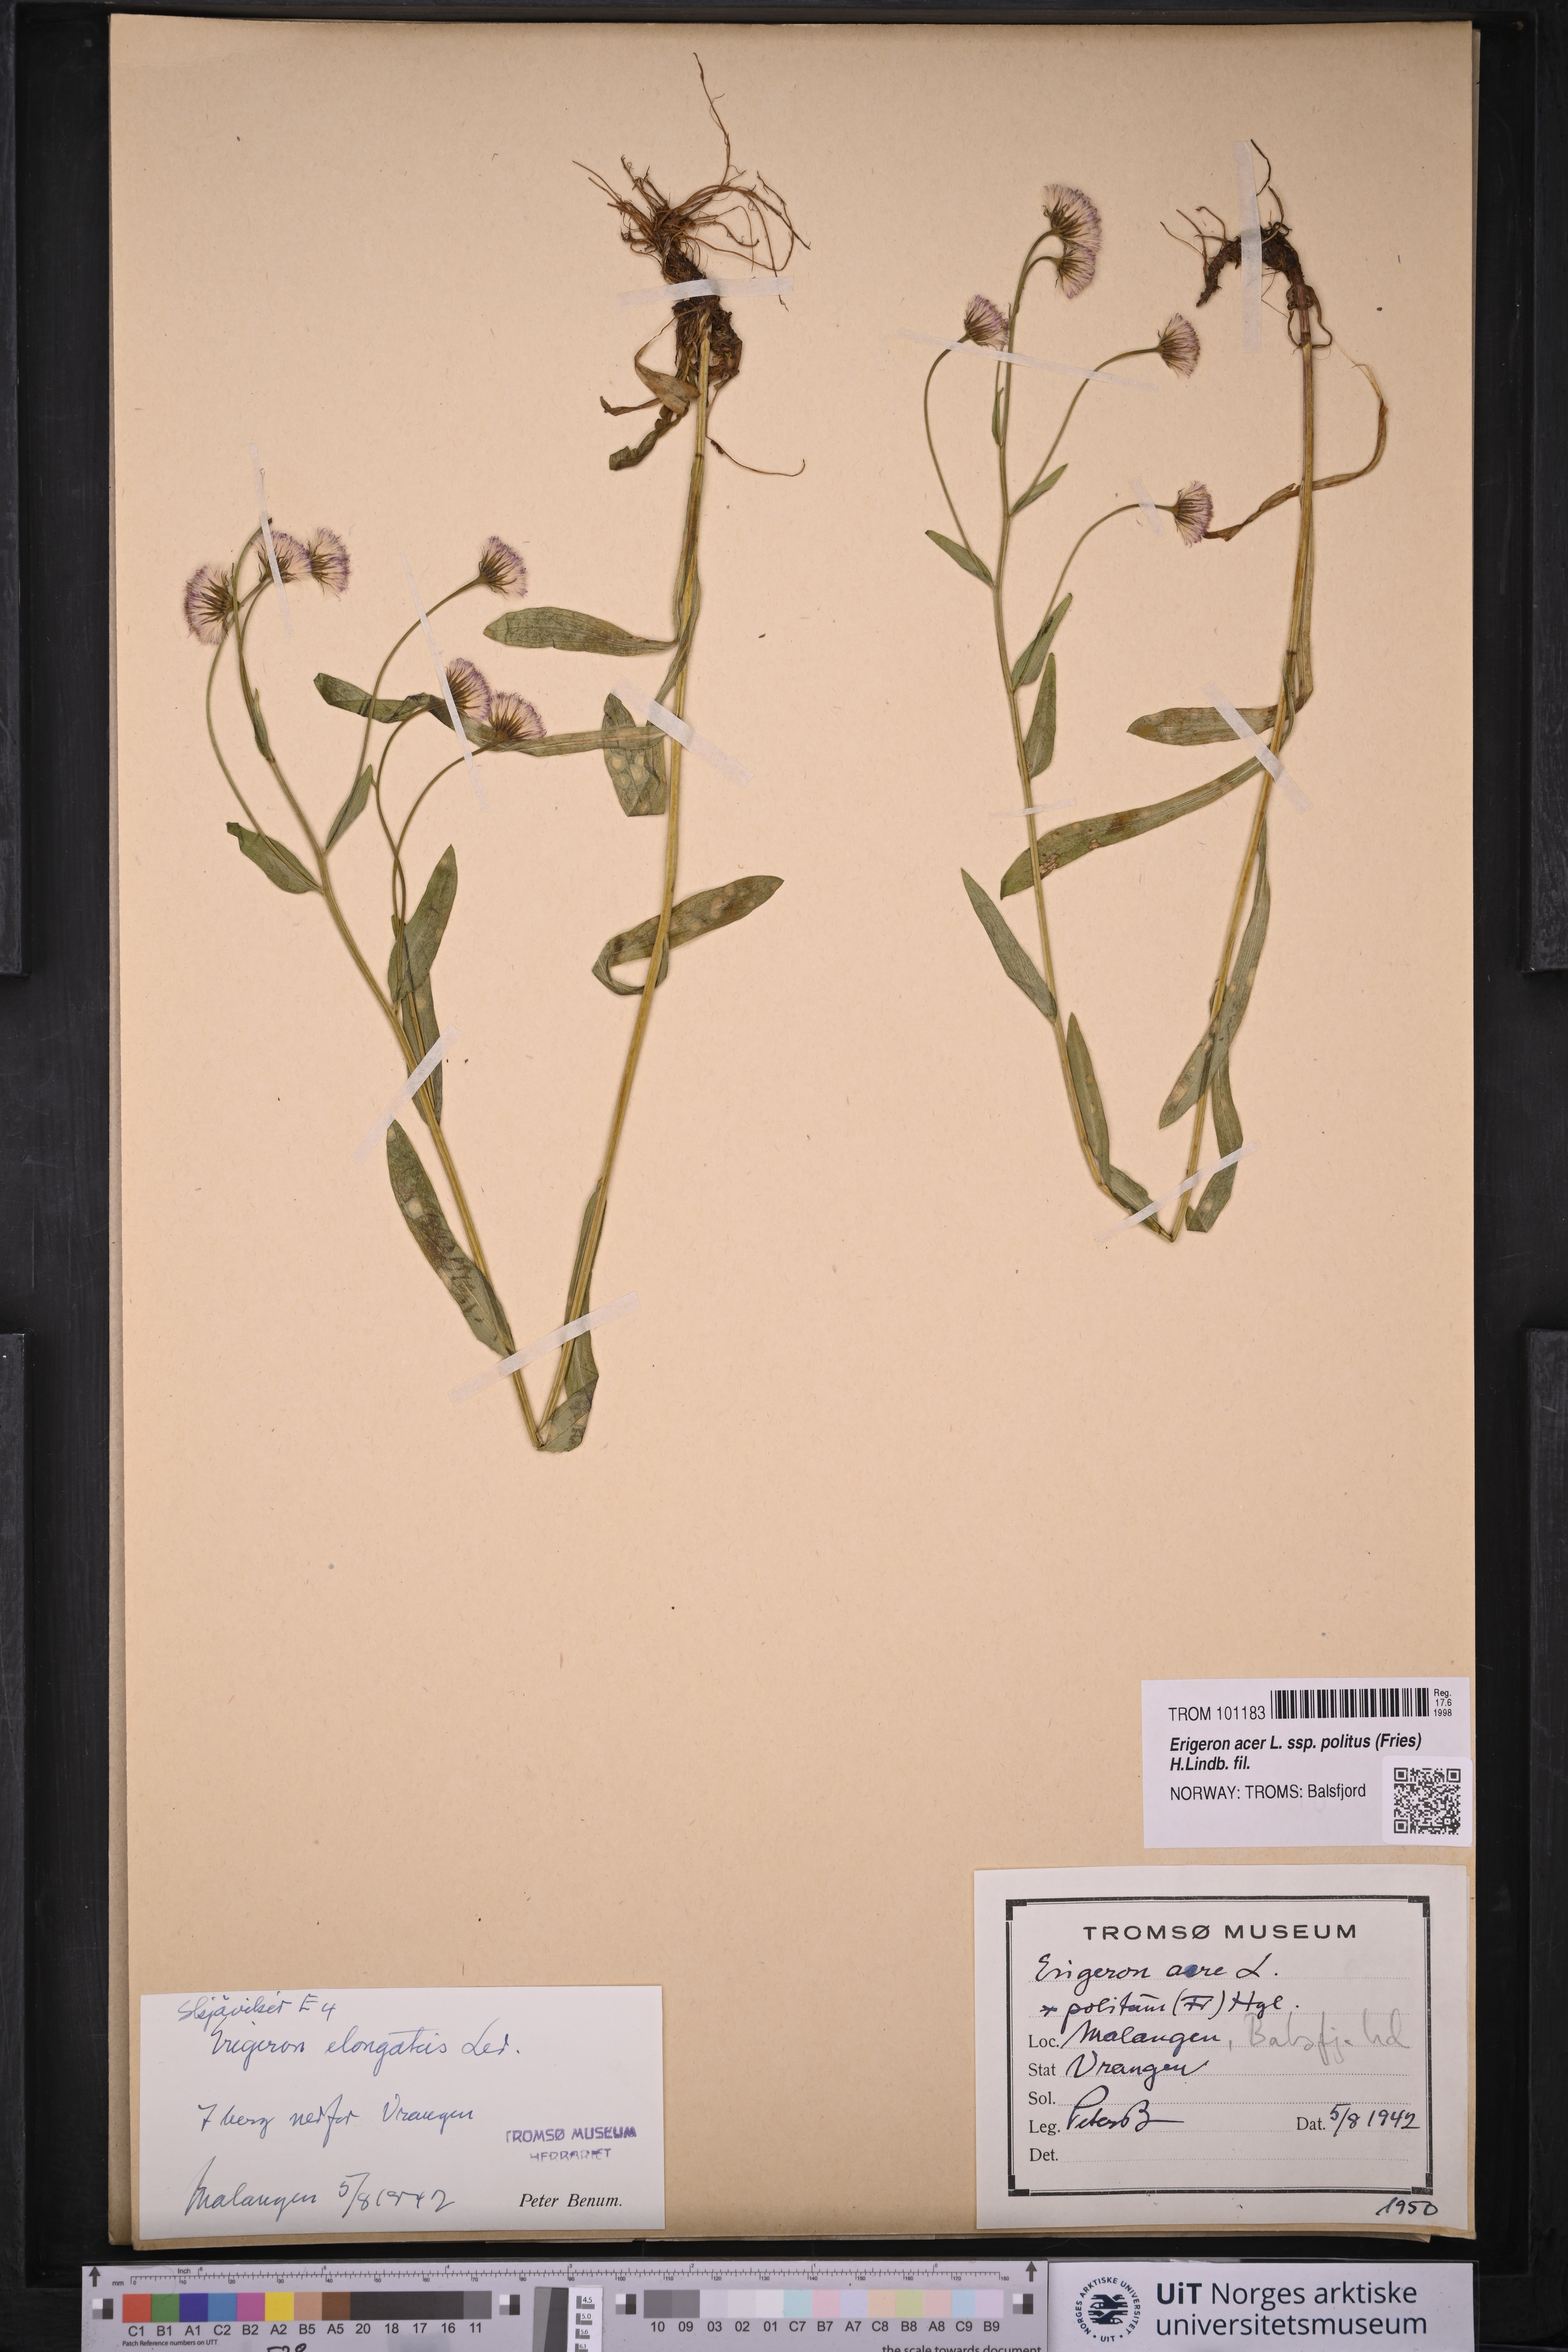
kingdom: Plantae
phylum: Tracheophyta
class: Magnoliopsida
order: Asterales
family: Asteraceae
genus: Erigeron
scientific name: Erigeron politus
